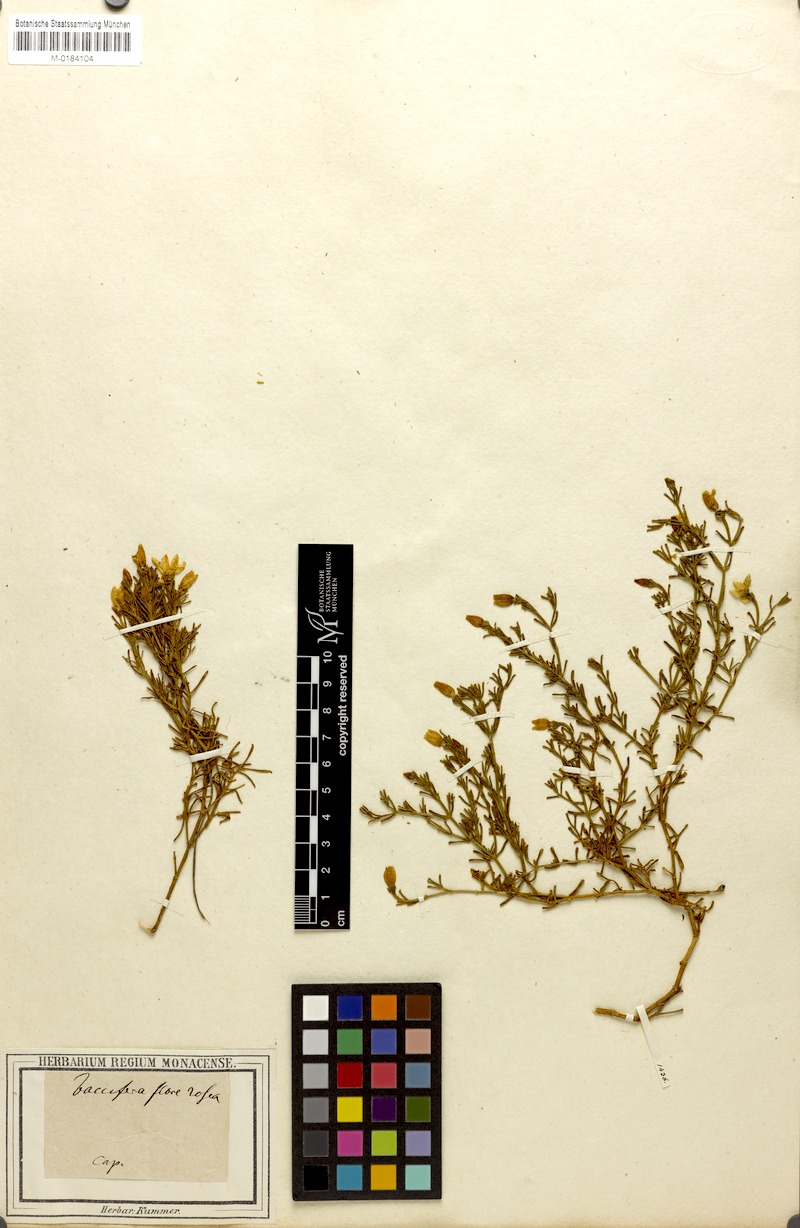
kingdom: Plantae
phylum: Tracheophyta
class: Magnoliopsida
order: Gentianales
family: Gentianaceae
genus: Chironia
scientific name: Chironia baccifera
